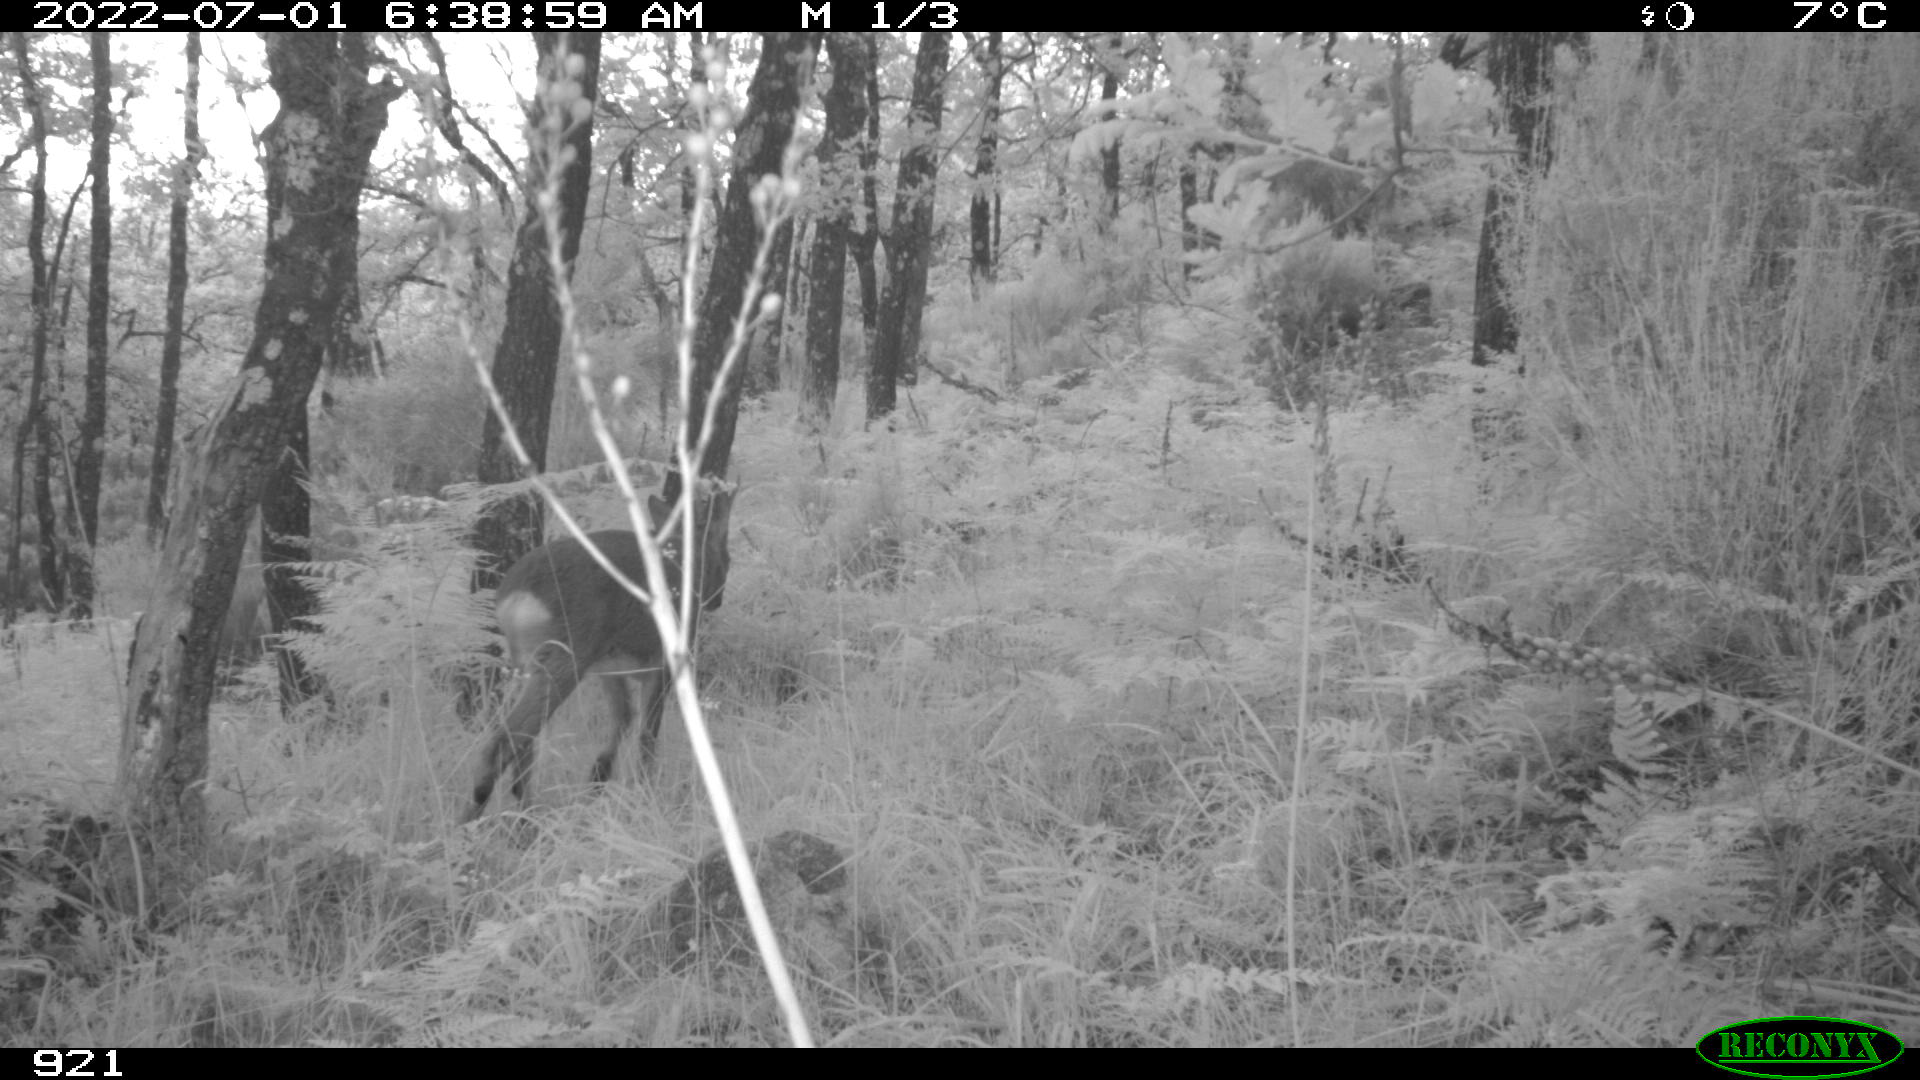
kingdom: Animalia
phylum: Chordata
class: Mammalia
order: Artiodactyla
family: Cervidae
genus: Capreolus
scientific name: Capreolus capreolus
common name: Western roe deer
